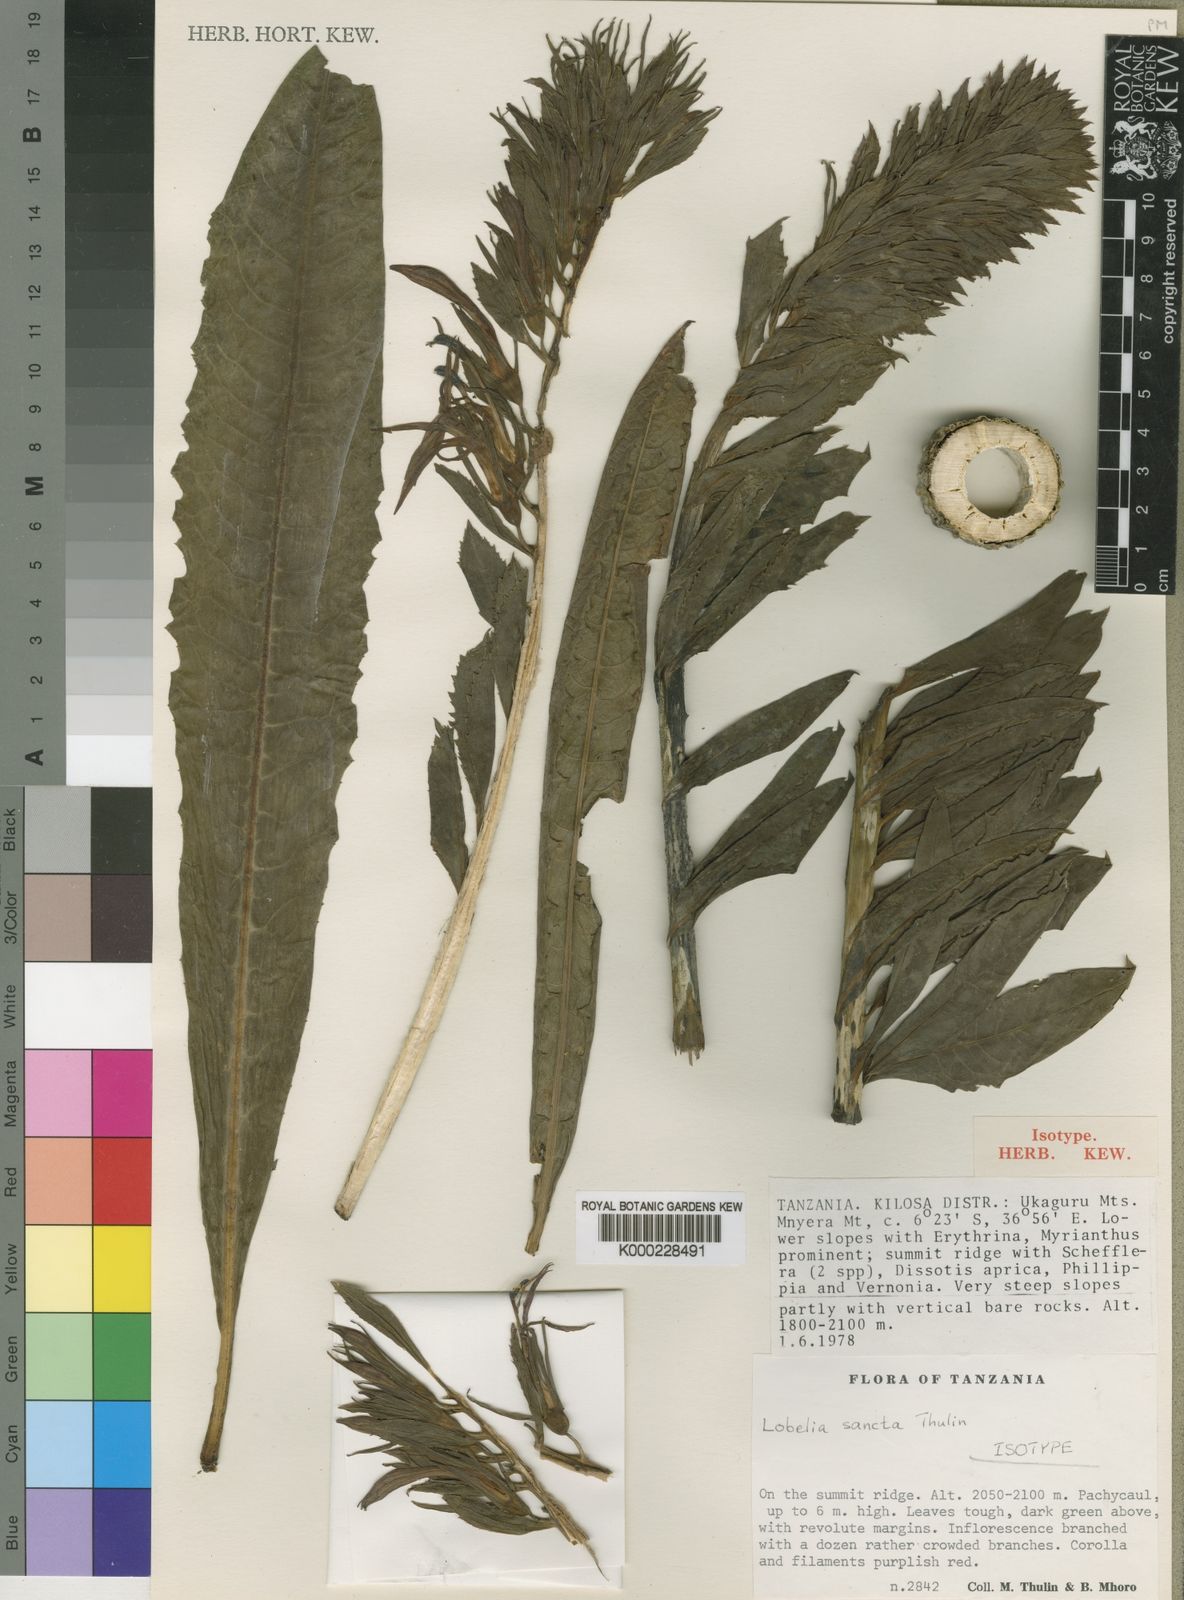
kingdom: Plantae
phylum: Tracheophyta
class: Magnoliopsida
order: Asterales
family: Campanulaceae
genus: Lobelia
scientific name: Lobelia sancta
